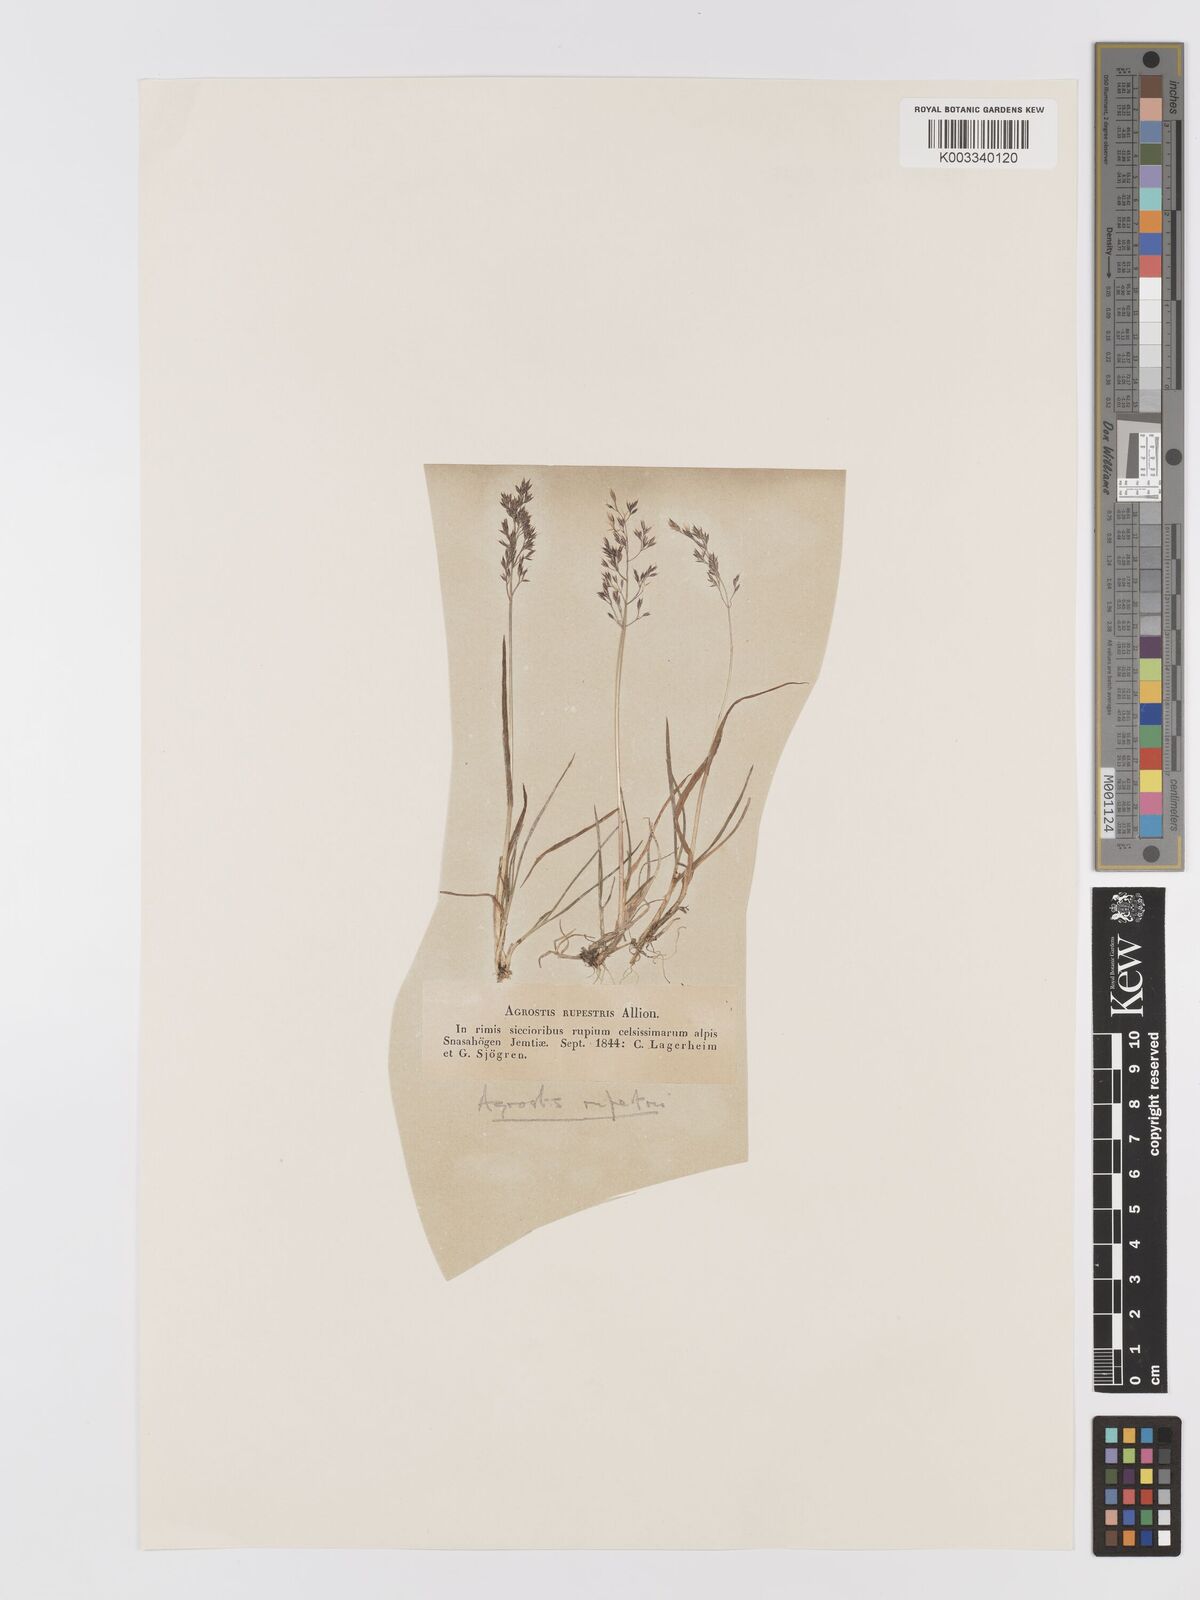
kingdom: Plantae
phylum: Tracheophyta
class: Liliopsida
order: Poales
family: Poaceae
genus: Agrostis
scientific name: Agrostis rupestris
